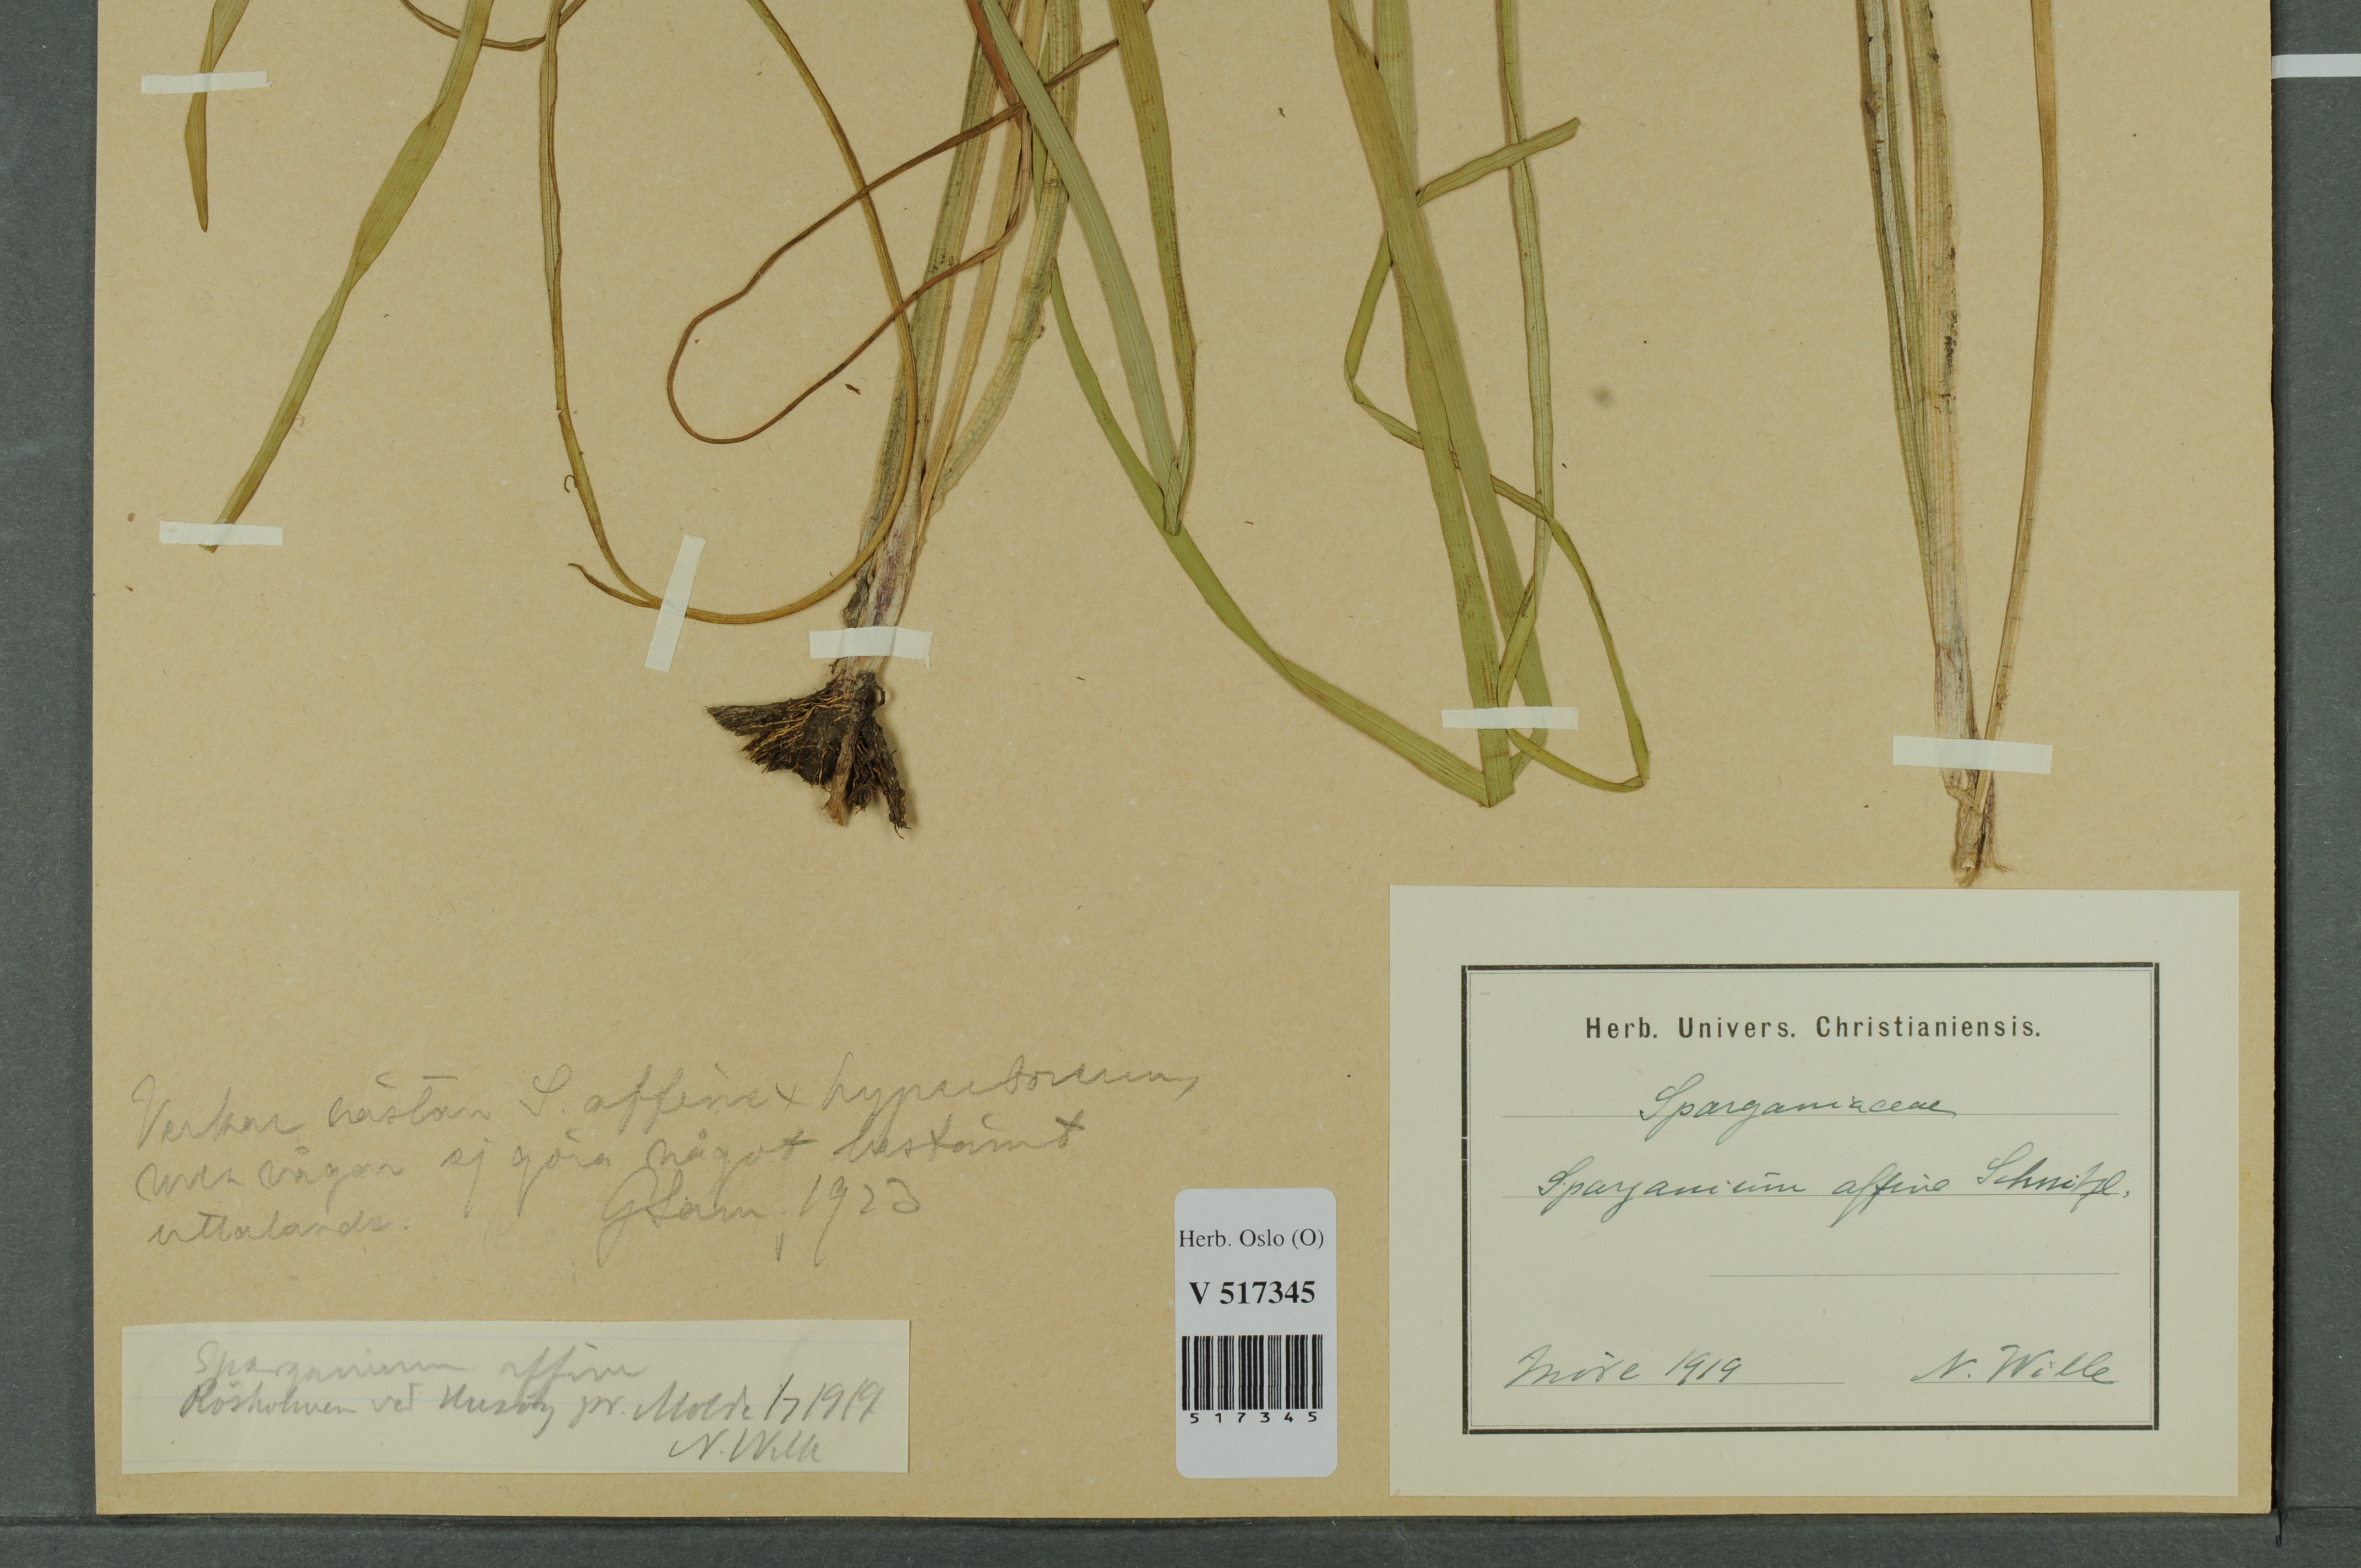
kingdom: Plantae
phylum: Tracheophyta
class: Liliopsida
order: Poales
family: Typhaceae
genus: Sparganium
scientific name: Sparganium angustifolium
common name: Floating bur-reed
